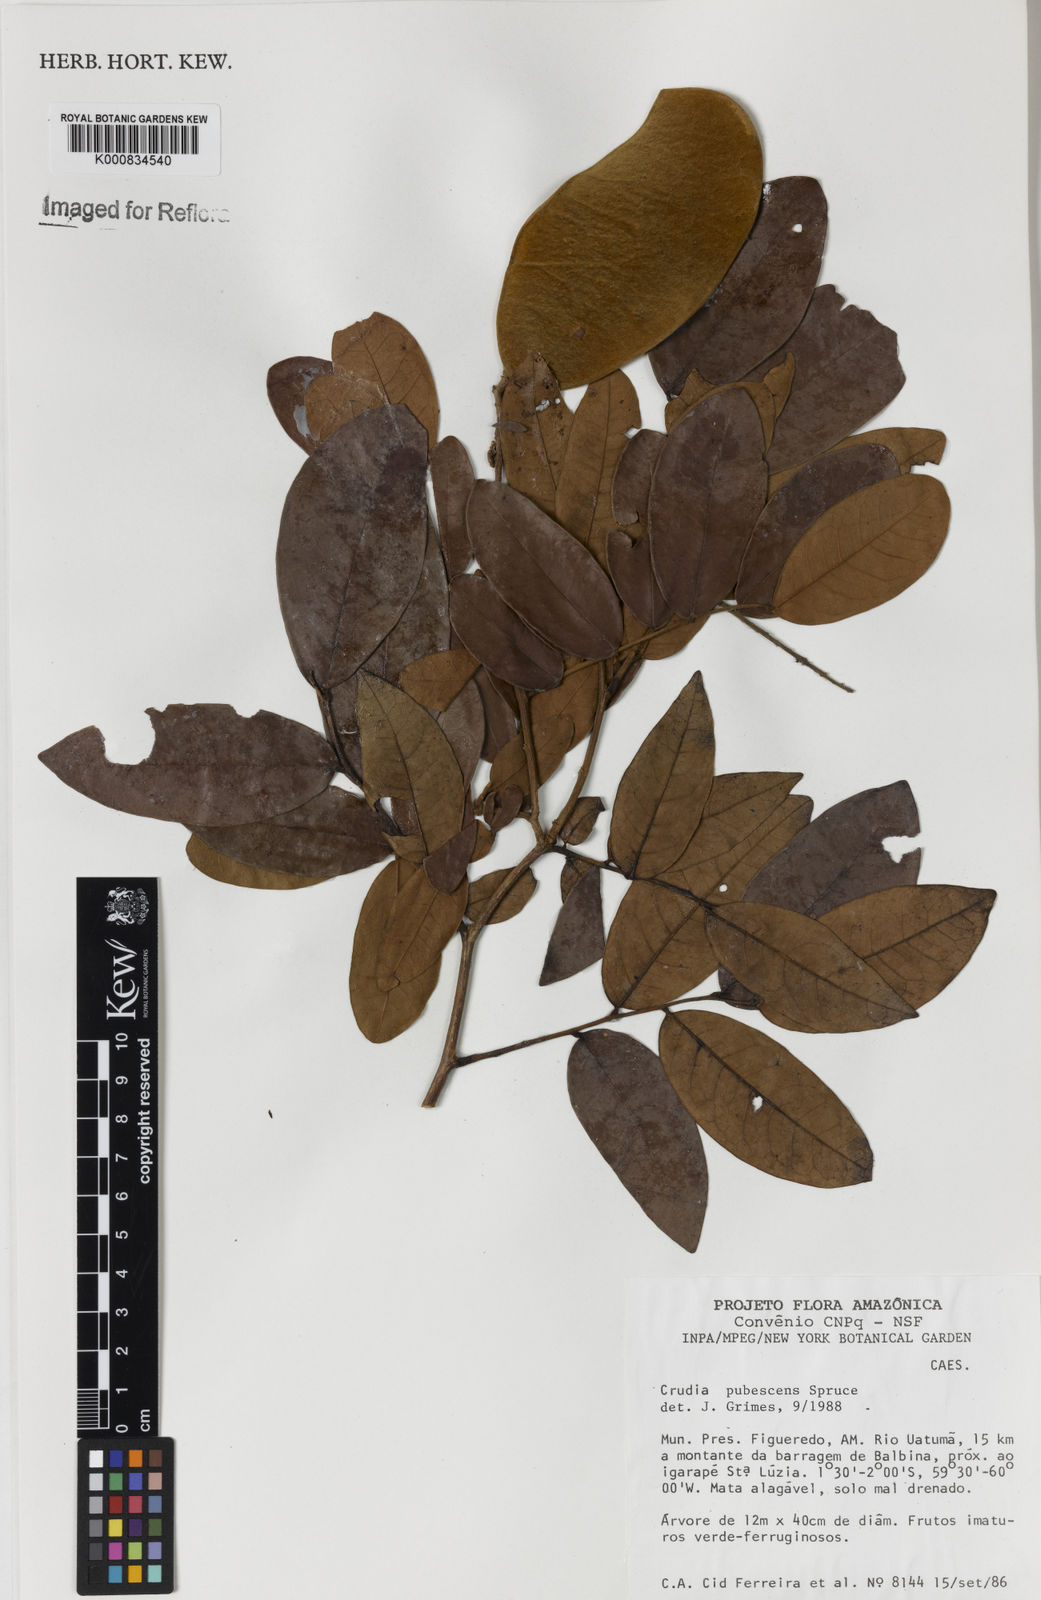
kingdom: Plantae
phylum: Tracheophyta
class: Magnoliopsida
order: Fabales
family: Fabaceae
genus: Crudia
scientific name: Crudia glaberrima
